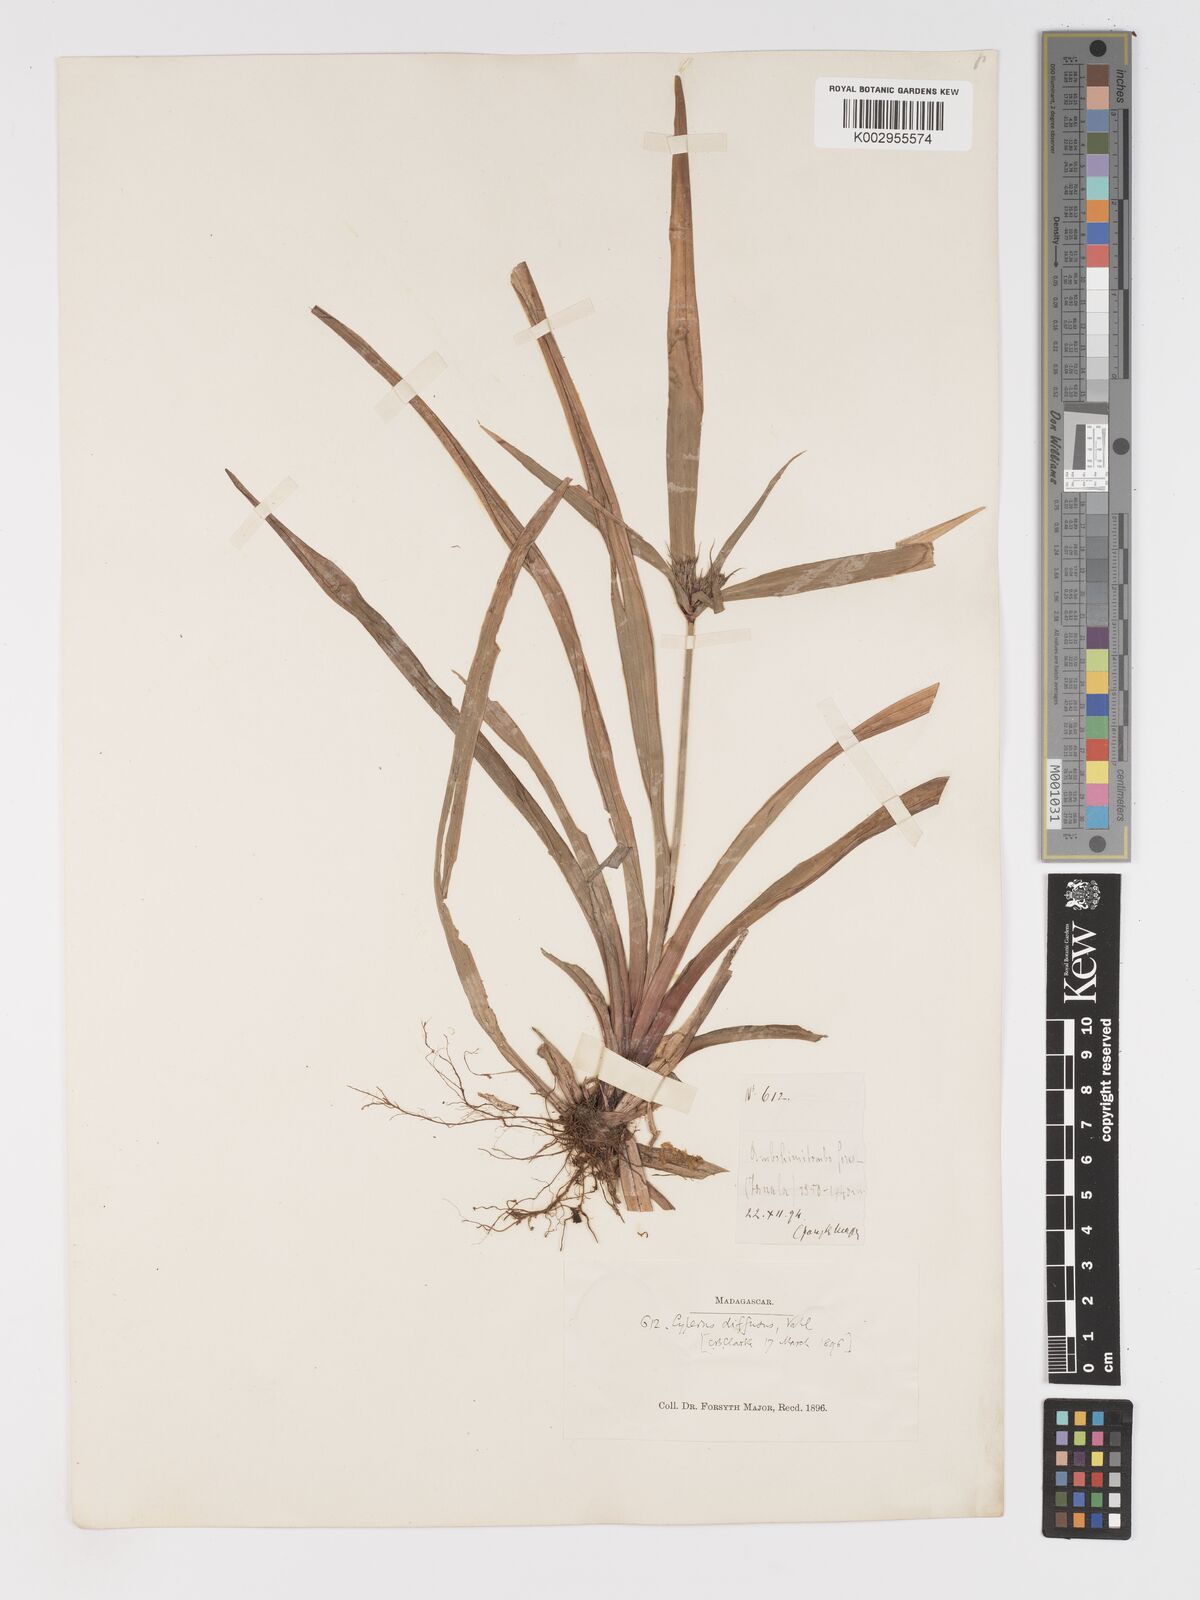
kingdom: Plantae
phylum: Tracheophyta
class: Liliopsida
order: Poales
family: Cyperaceae
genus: Cyperus
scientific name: Cyperus diffusus
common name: Dwarf umbrella grass
